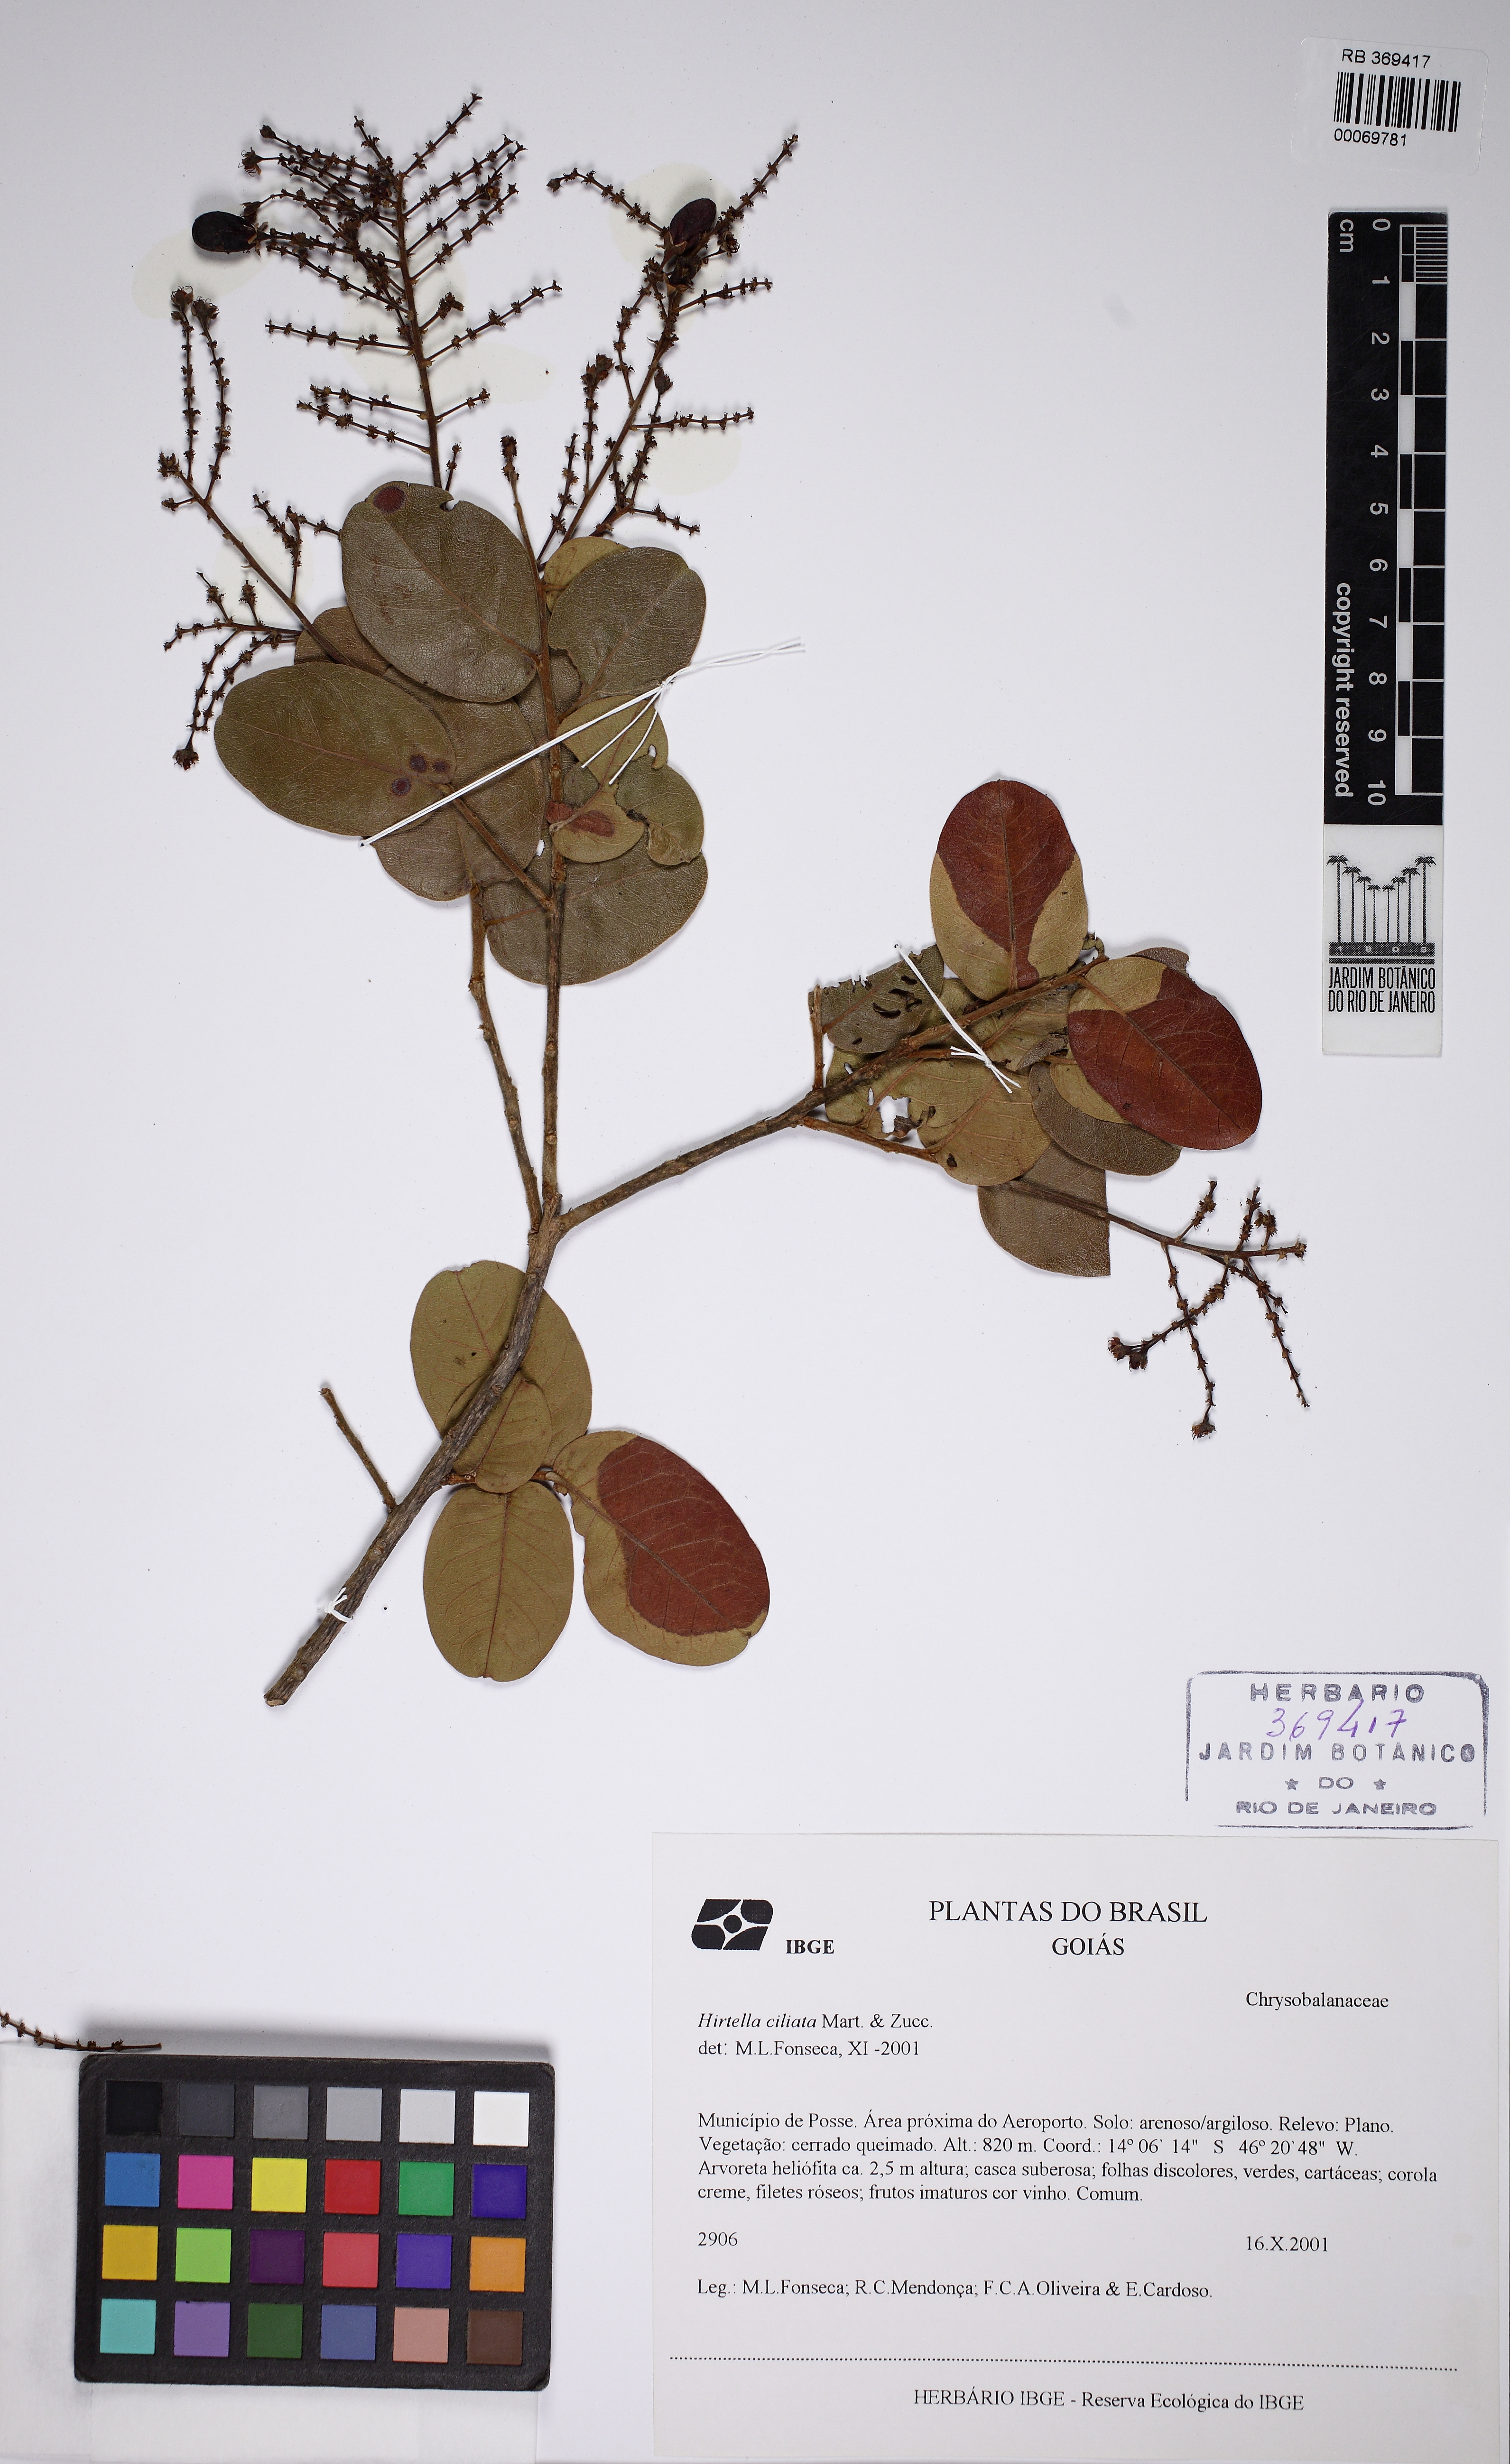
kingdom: Plantae
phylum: Tracheophyta
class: Magnoliopsida
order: Malpighiales
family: Chrysobalanaceae
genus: Hirtella
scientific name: Hirtella ciliata
